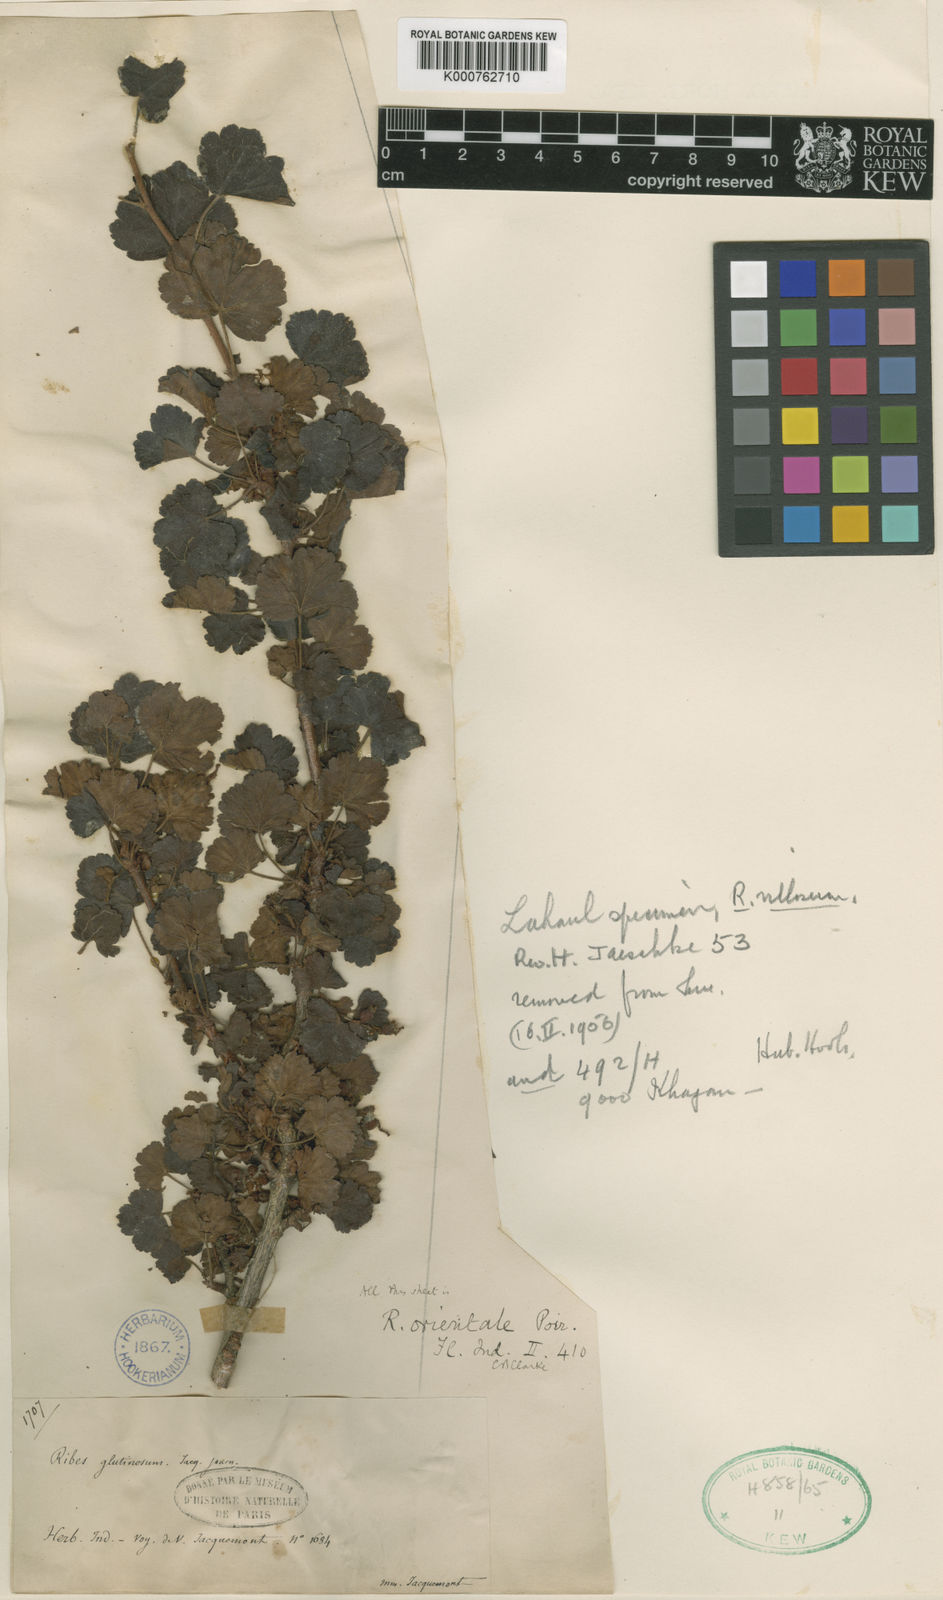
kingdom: Plantae
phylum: Tracheophyta
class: Magnoliopsida
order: Saxifragales
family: Grossulariaceae
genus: Ribes
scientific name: Ribes orientale
